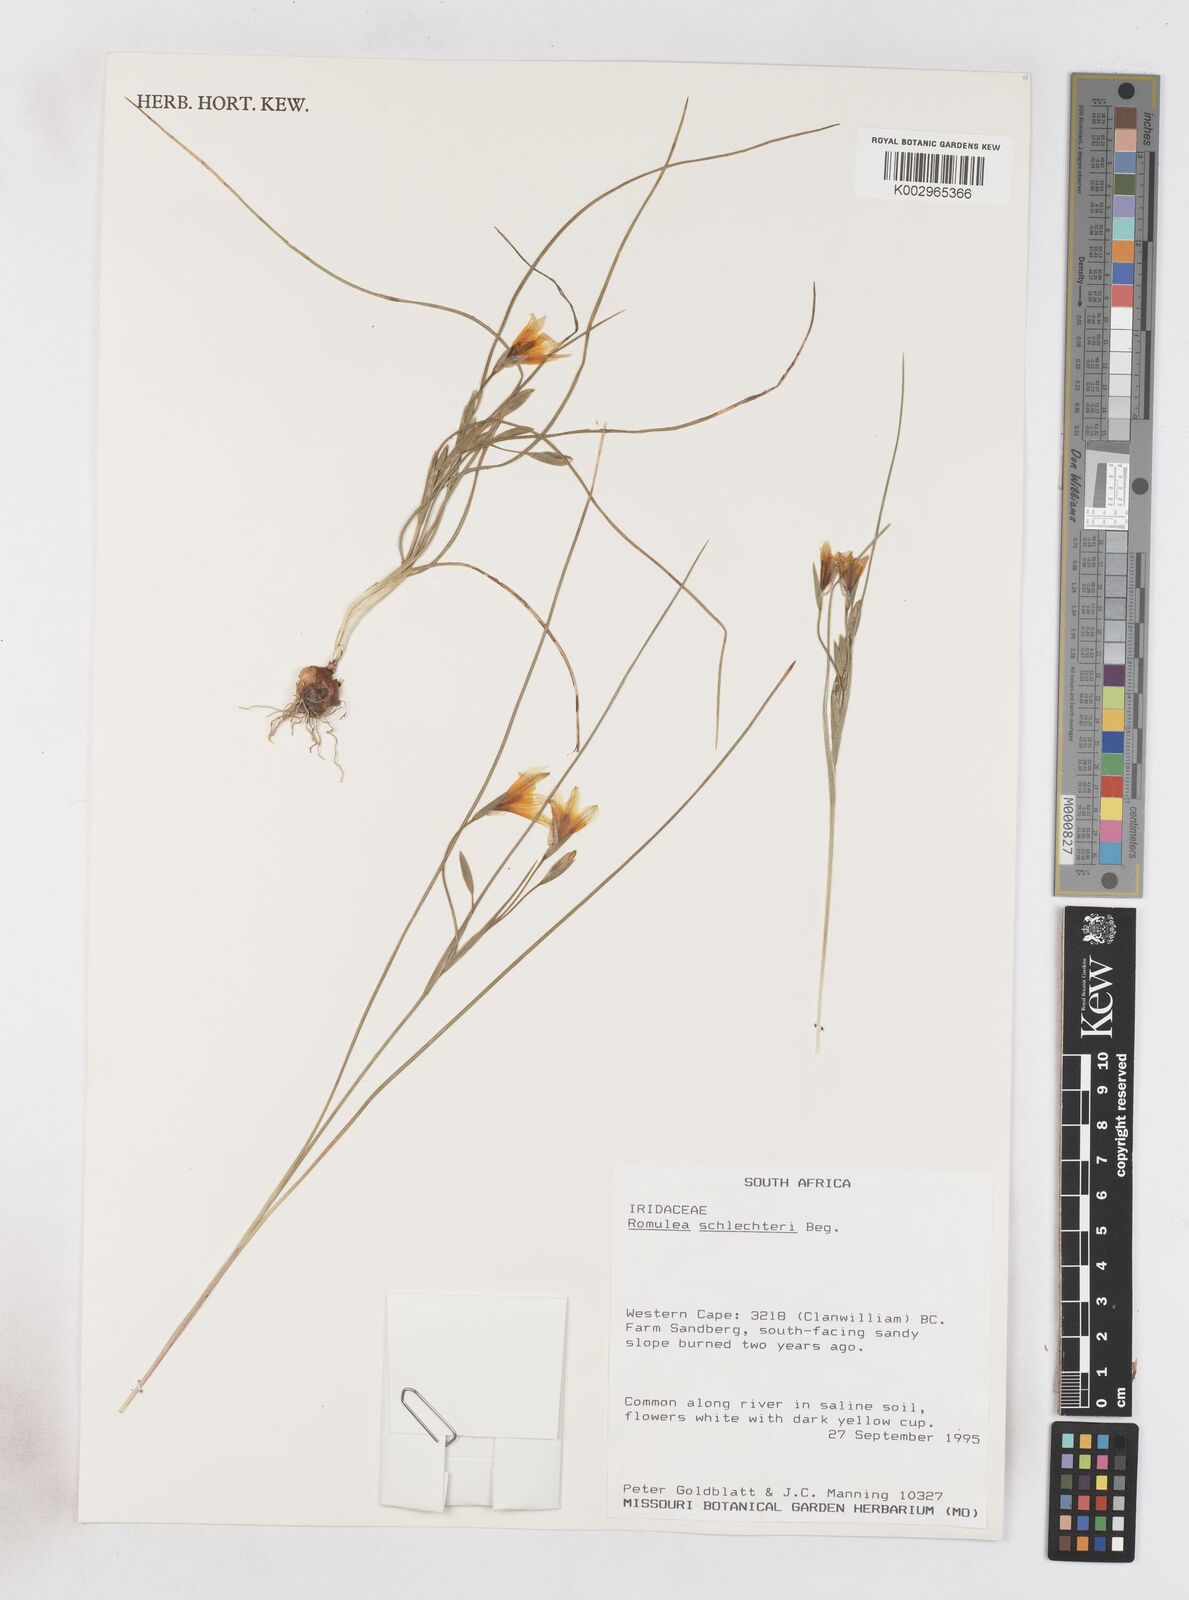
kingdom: Plantae
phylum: Tracheophyta
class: Liliopsida
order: Asparagales
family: Iridaceae
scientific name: Iridaceae
